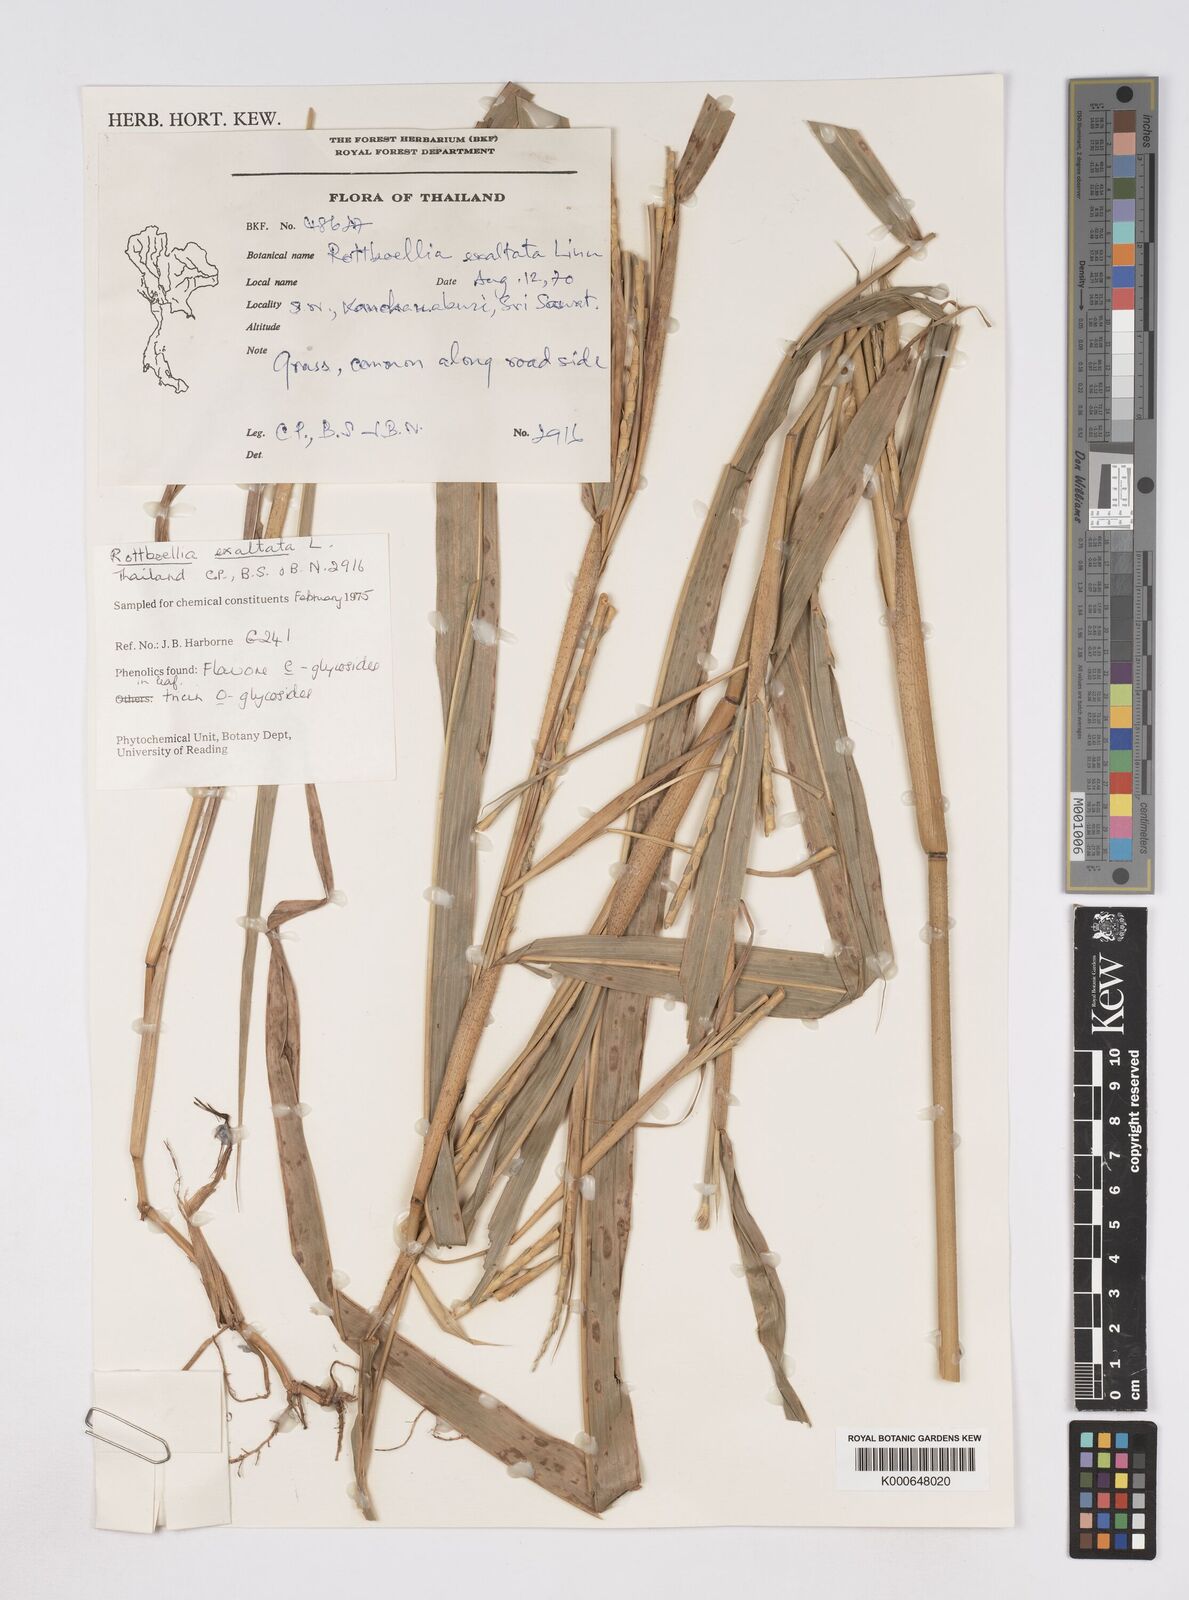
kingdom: Plantae
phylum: Tracheophyta
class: Liliopsida
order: Poales
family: Poaceae
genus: Rottboellia
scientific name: Rottboellia cochinchinensis
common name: Itchgrass
